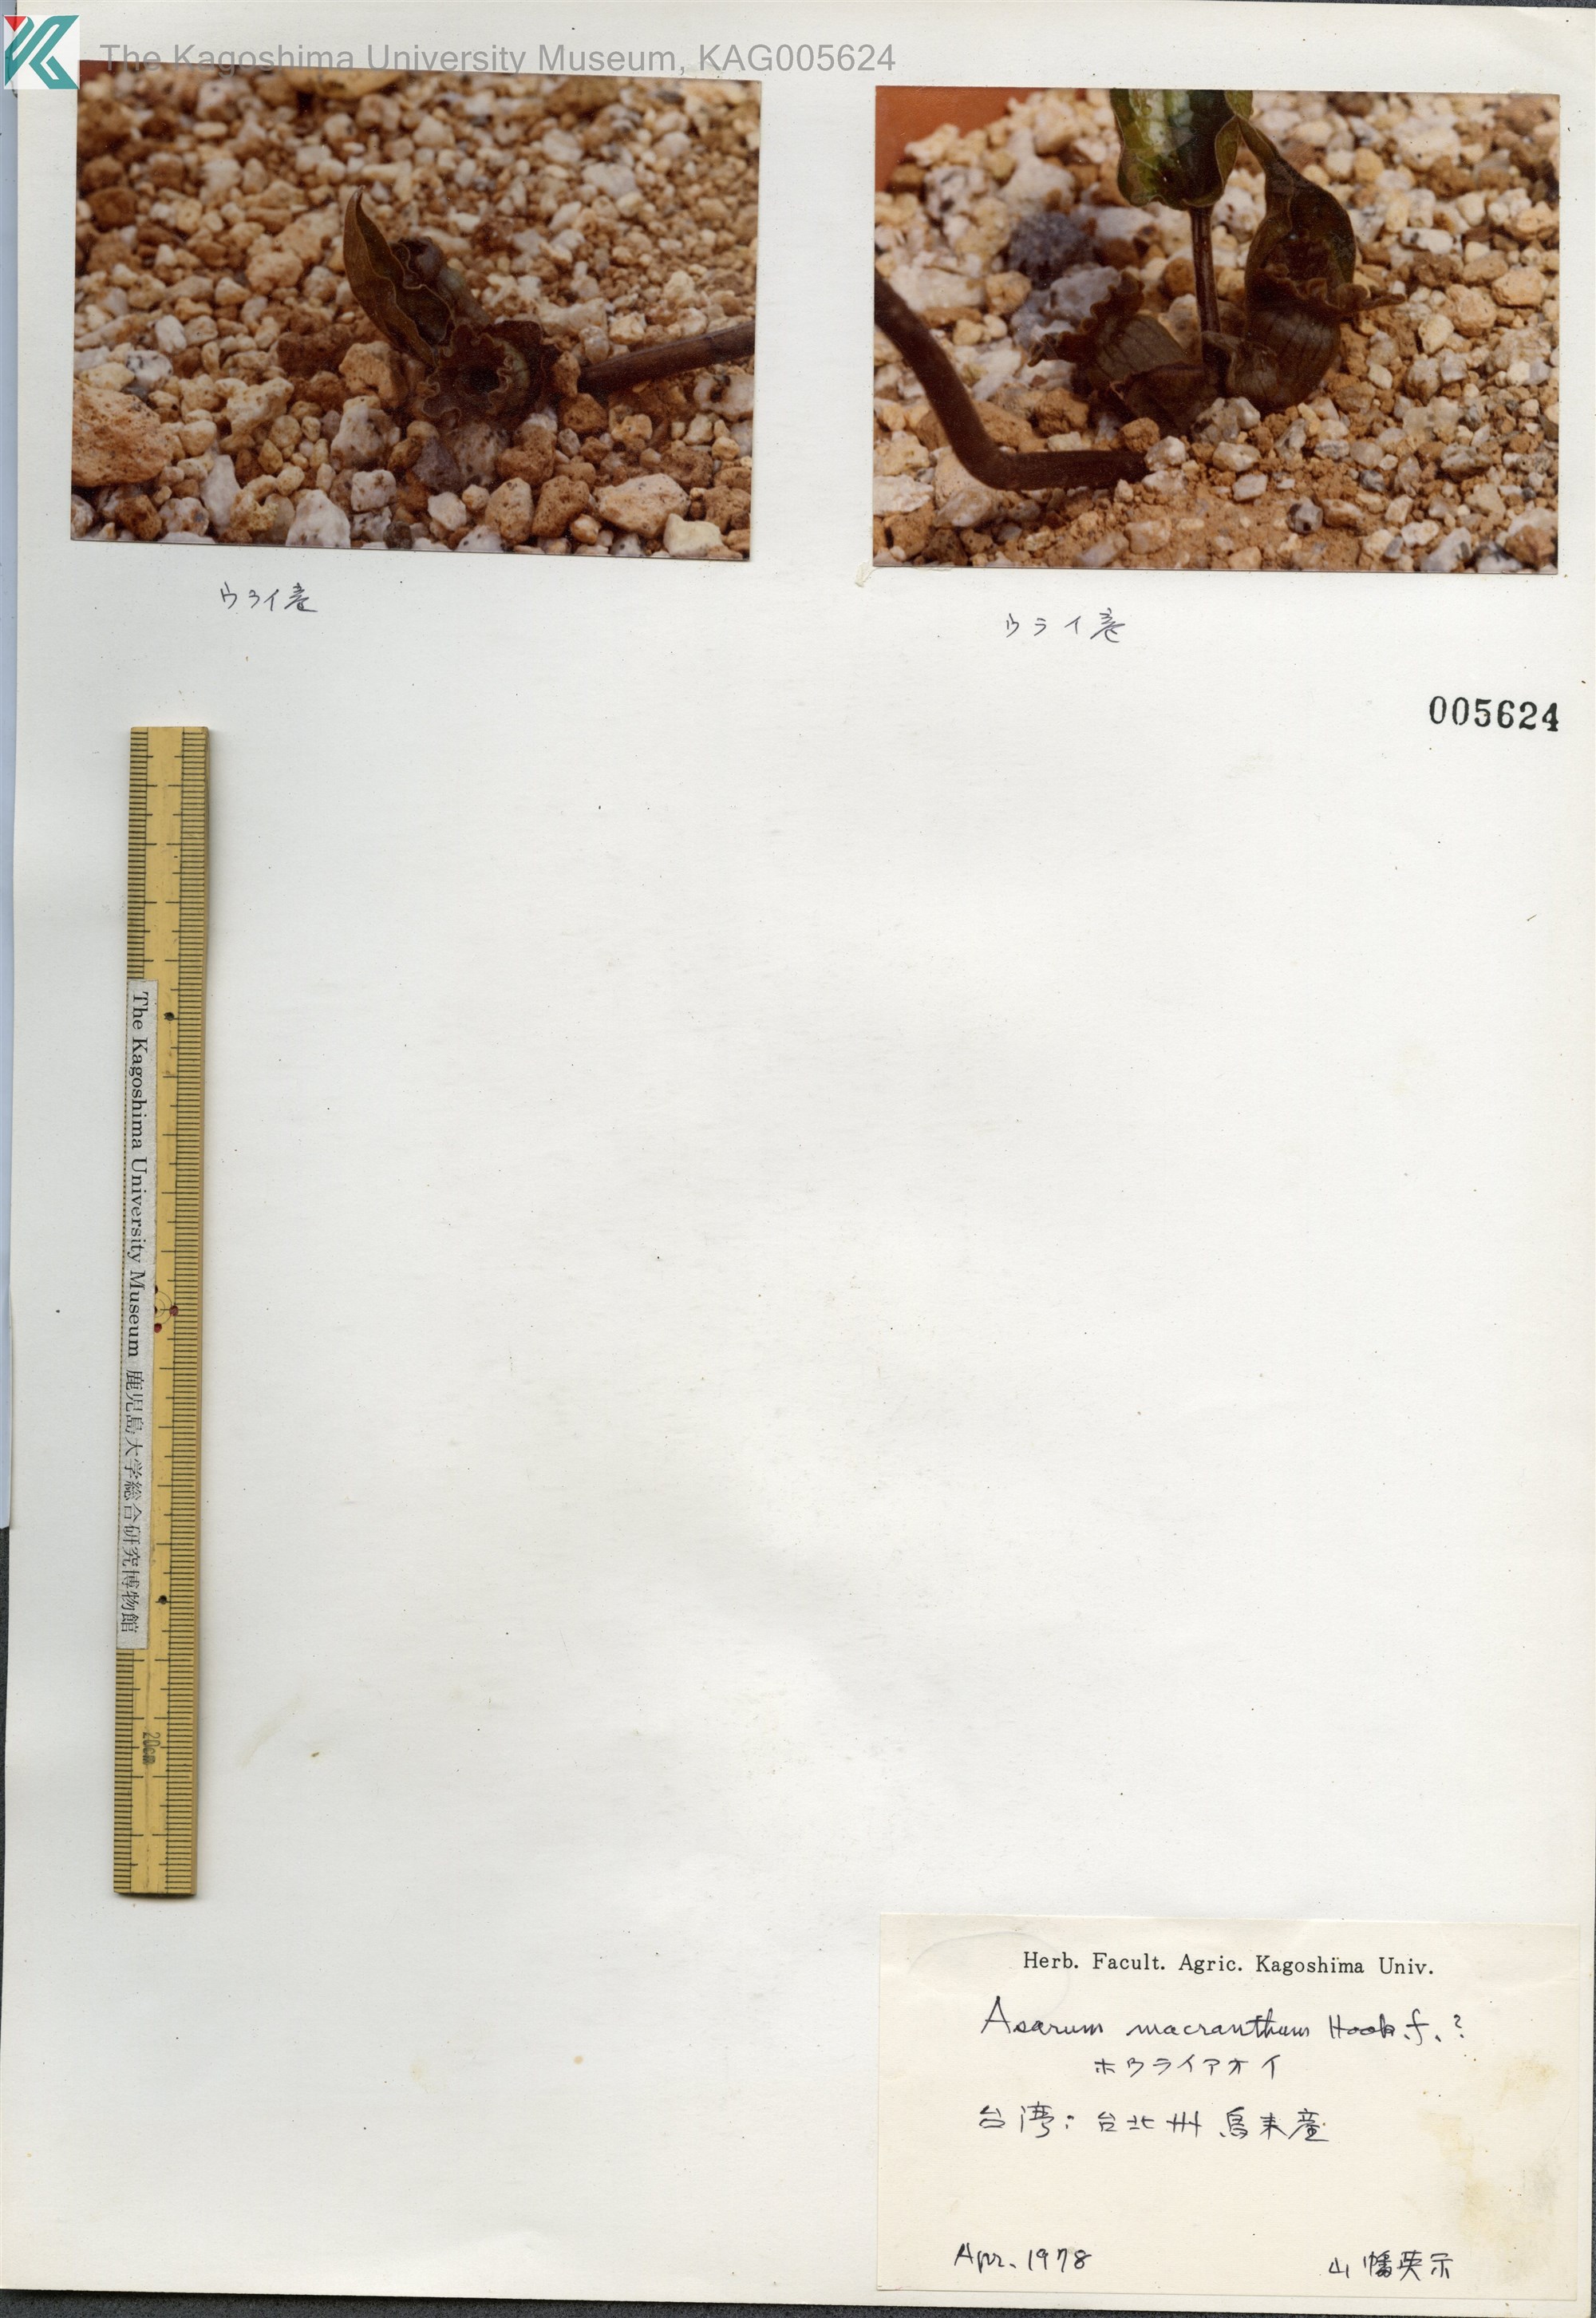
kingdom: Plantae
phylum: Tracheophyta
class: Magnoliopsida
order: Piperales
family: Aristolochiaceae
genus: Asarum
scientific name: Asarum macranthum
